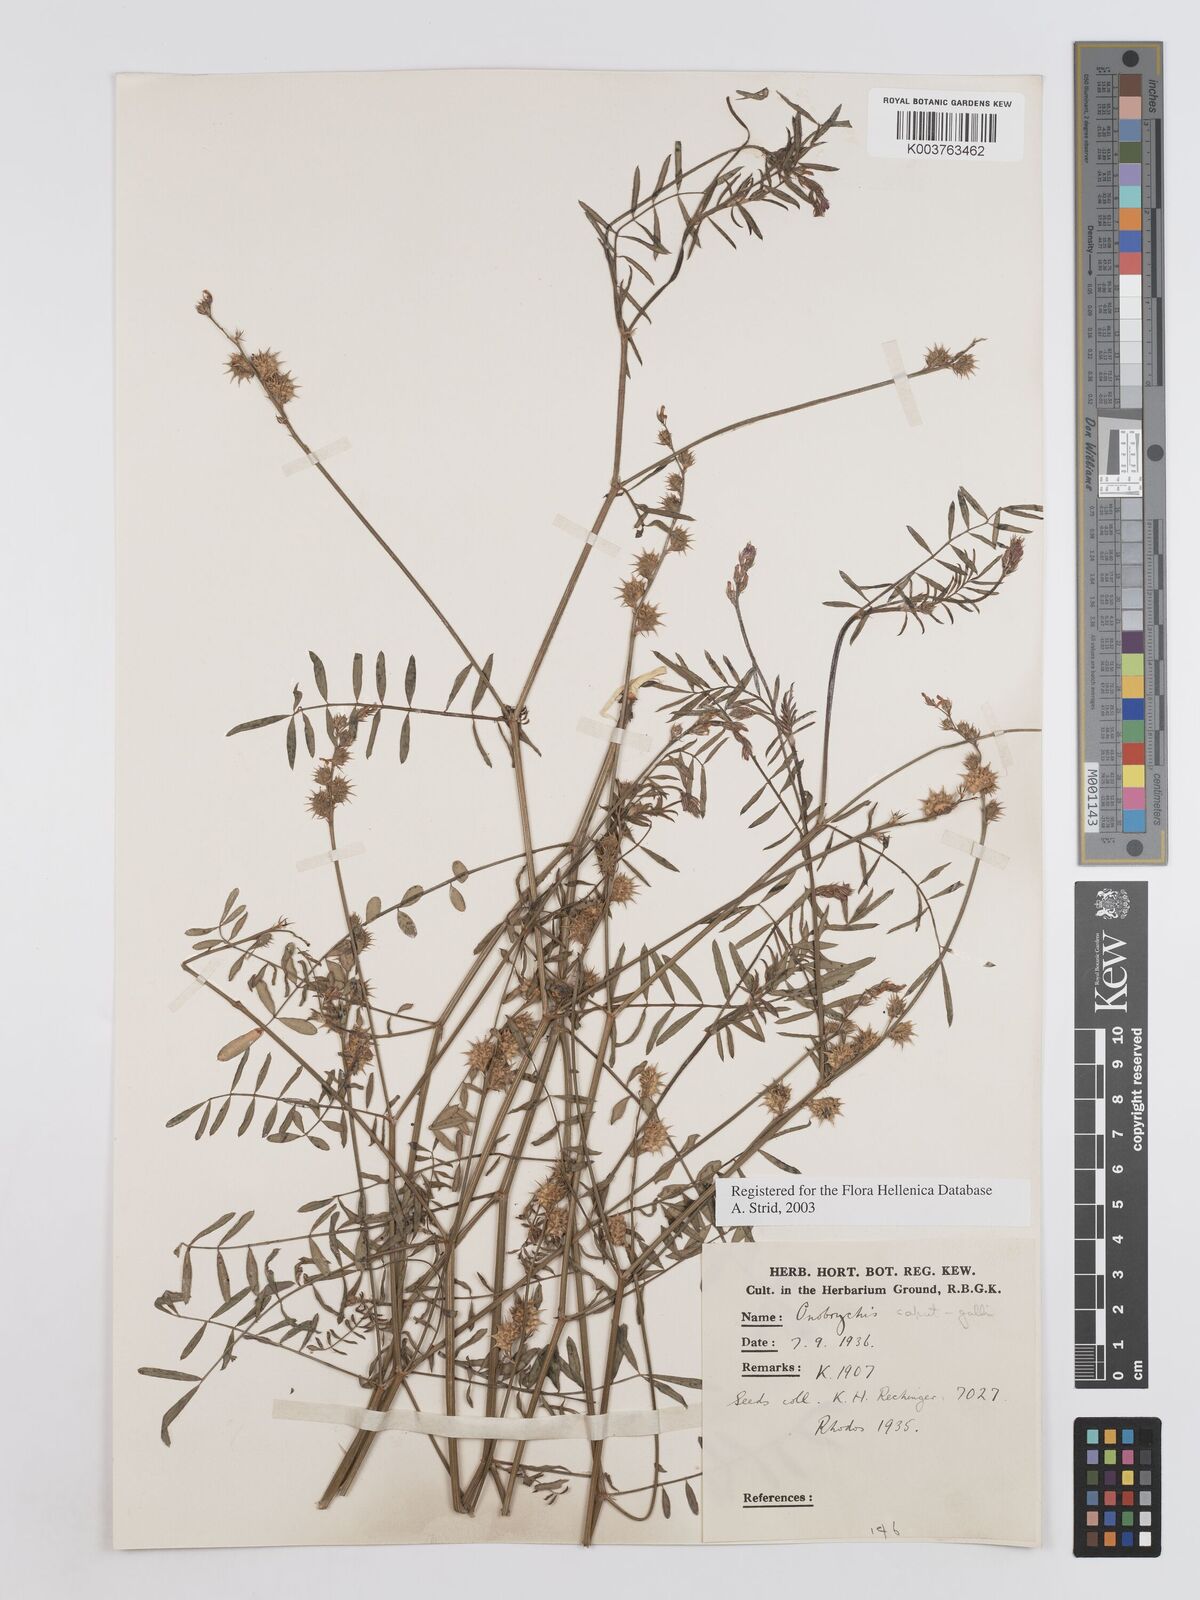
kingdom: Plantae
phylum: Tracheophyta
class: Magnoliopsida
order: Fabales
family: Fabaceae
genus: Onobrychis
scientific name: Onobrychis caput-galli
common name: Cockscomb sainfoin
